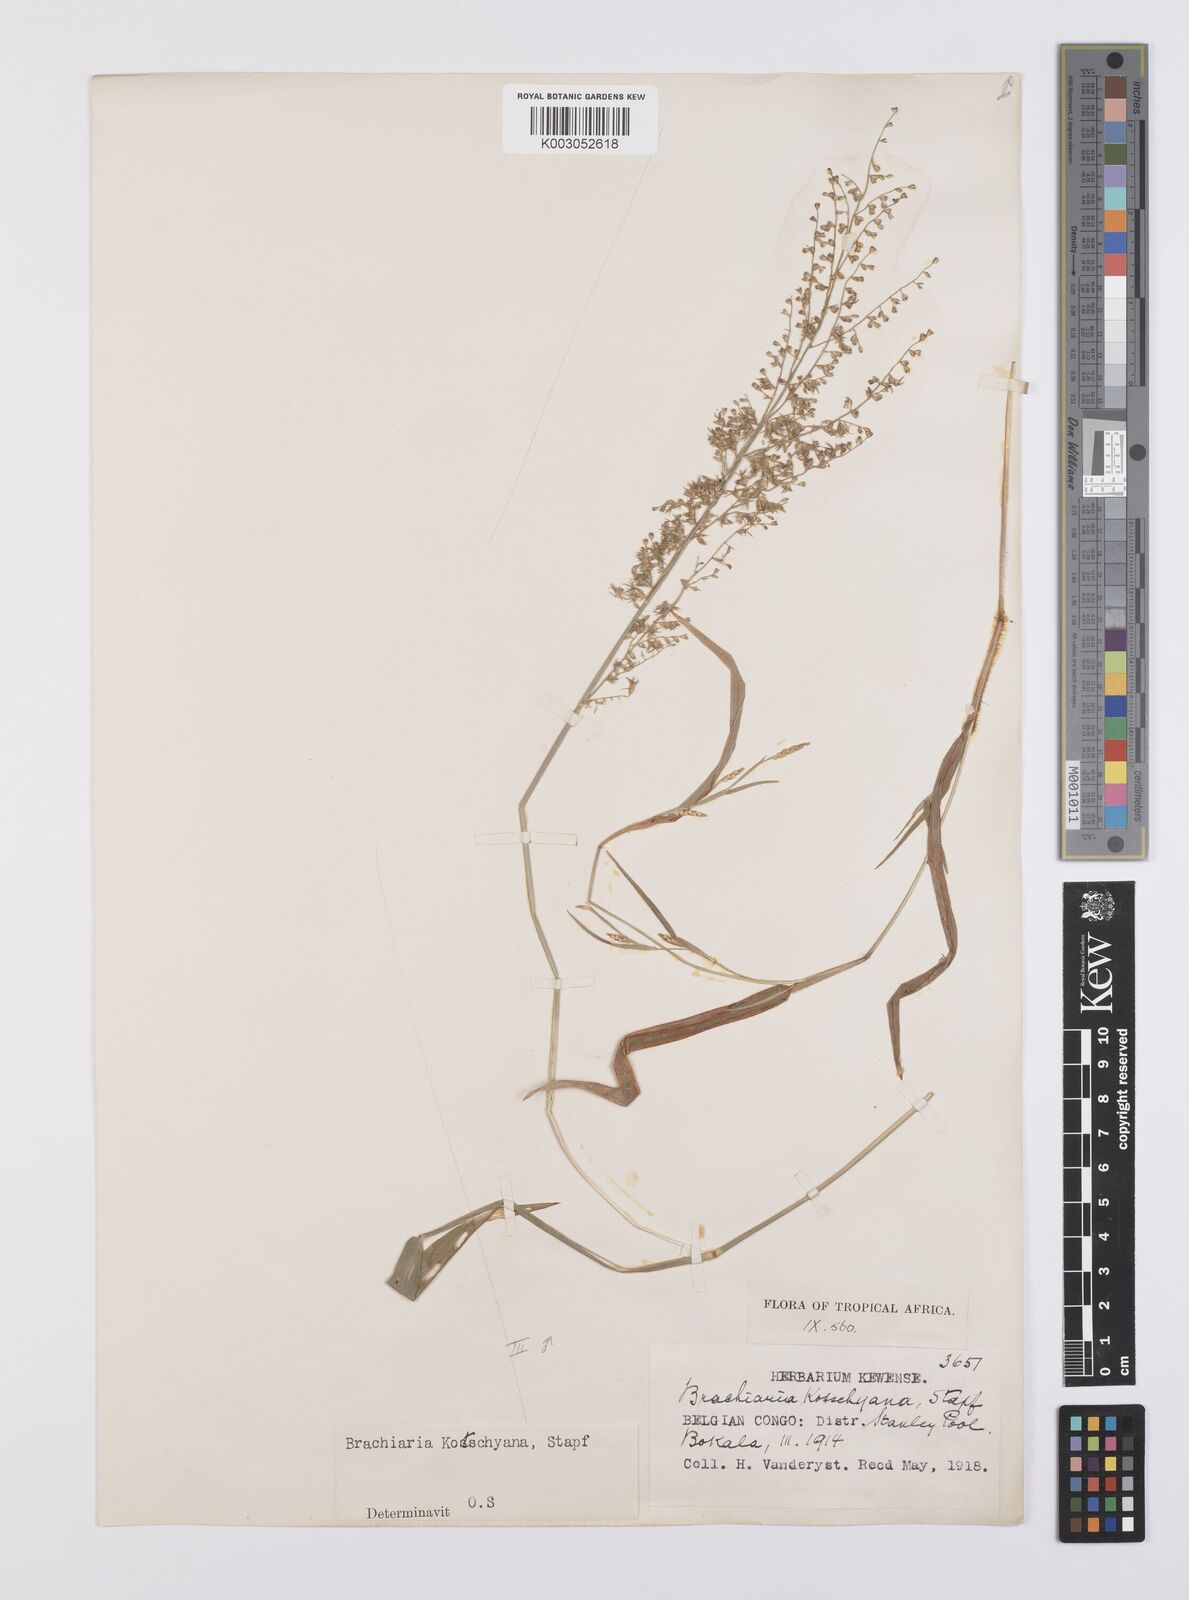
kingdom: Plantae
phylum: Tracheophyta
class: Liliopsida
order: Poales
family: Poaceae
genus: Urochloa
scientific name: Urochloa comata
